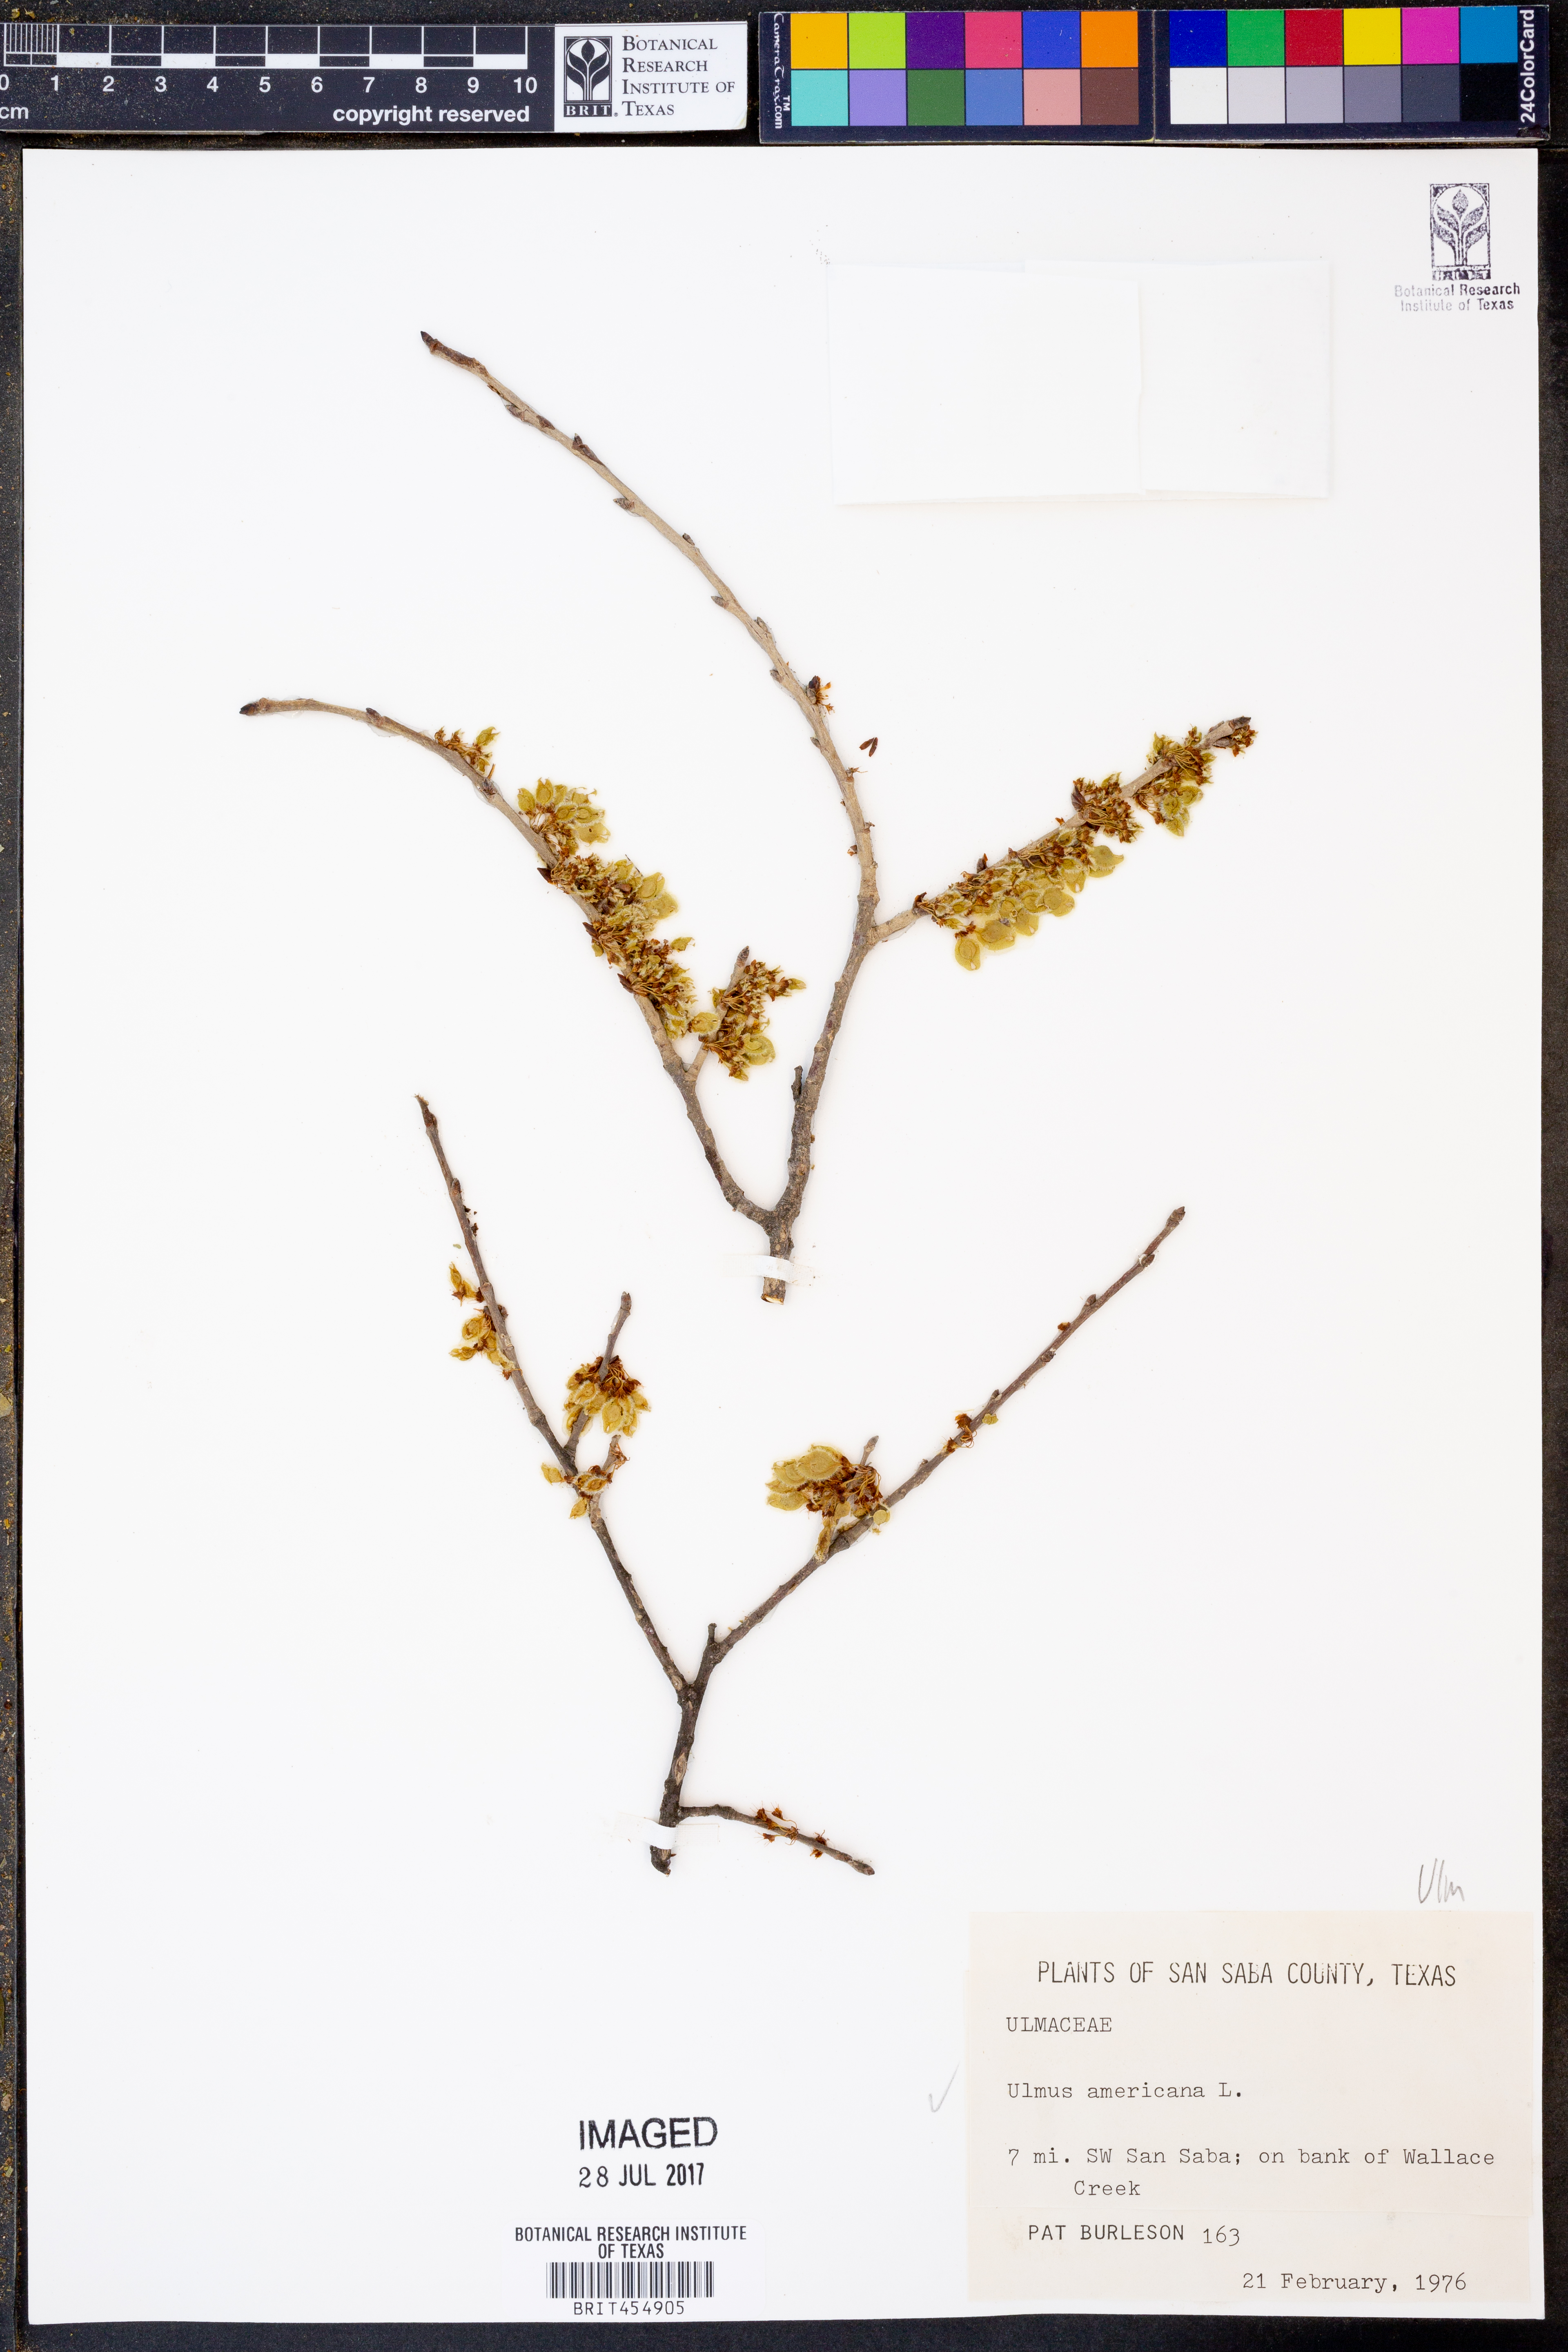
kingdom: Plantae
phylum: Tracheophyta
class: Magnoliopsida
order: Rosales
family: Ulmaceae
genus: Ulmus
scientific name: Ulmus americana
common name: American elm
